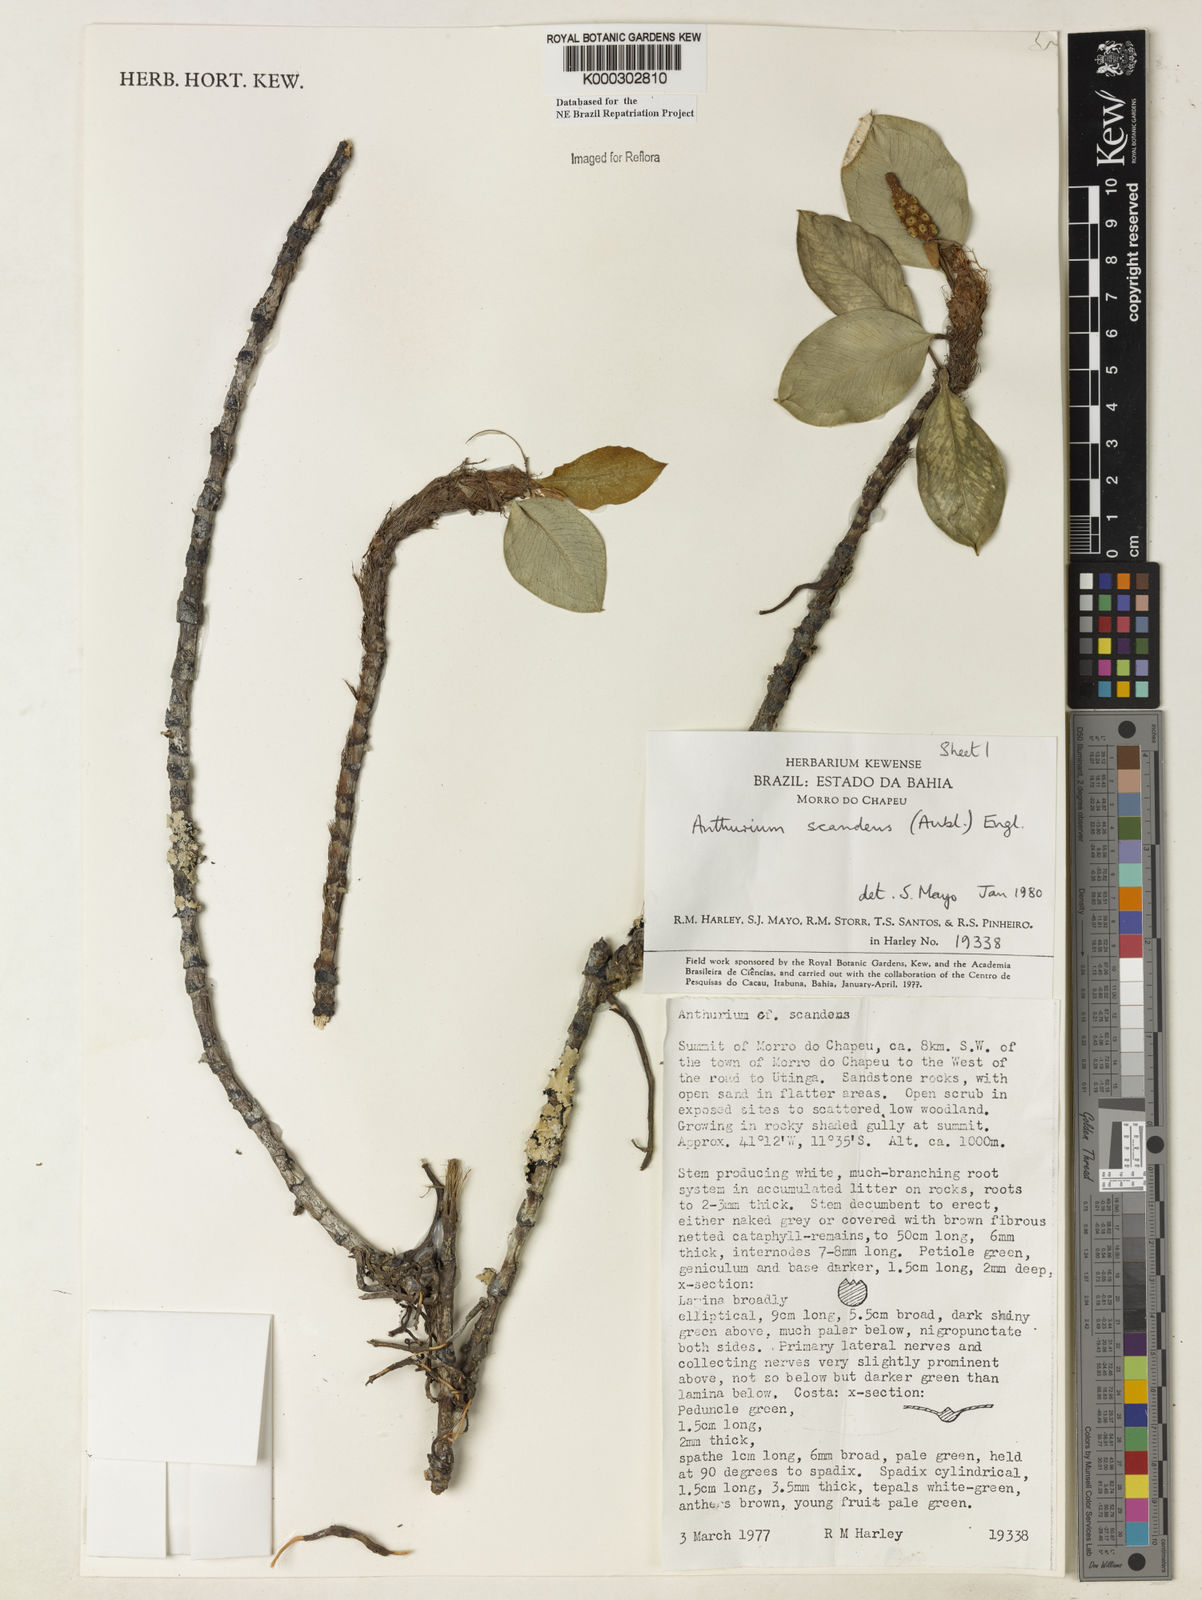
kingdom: Plantae
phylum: Tracheophyta
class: Liliopsida
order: Alismatales
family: Araceae
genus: Anthurium
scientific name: Anthurium scandens
